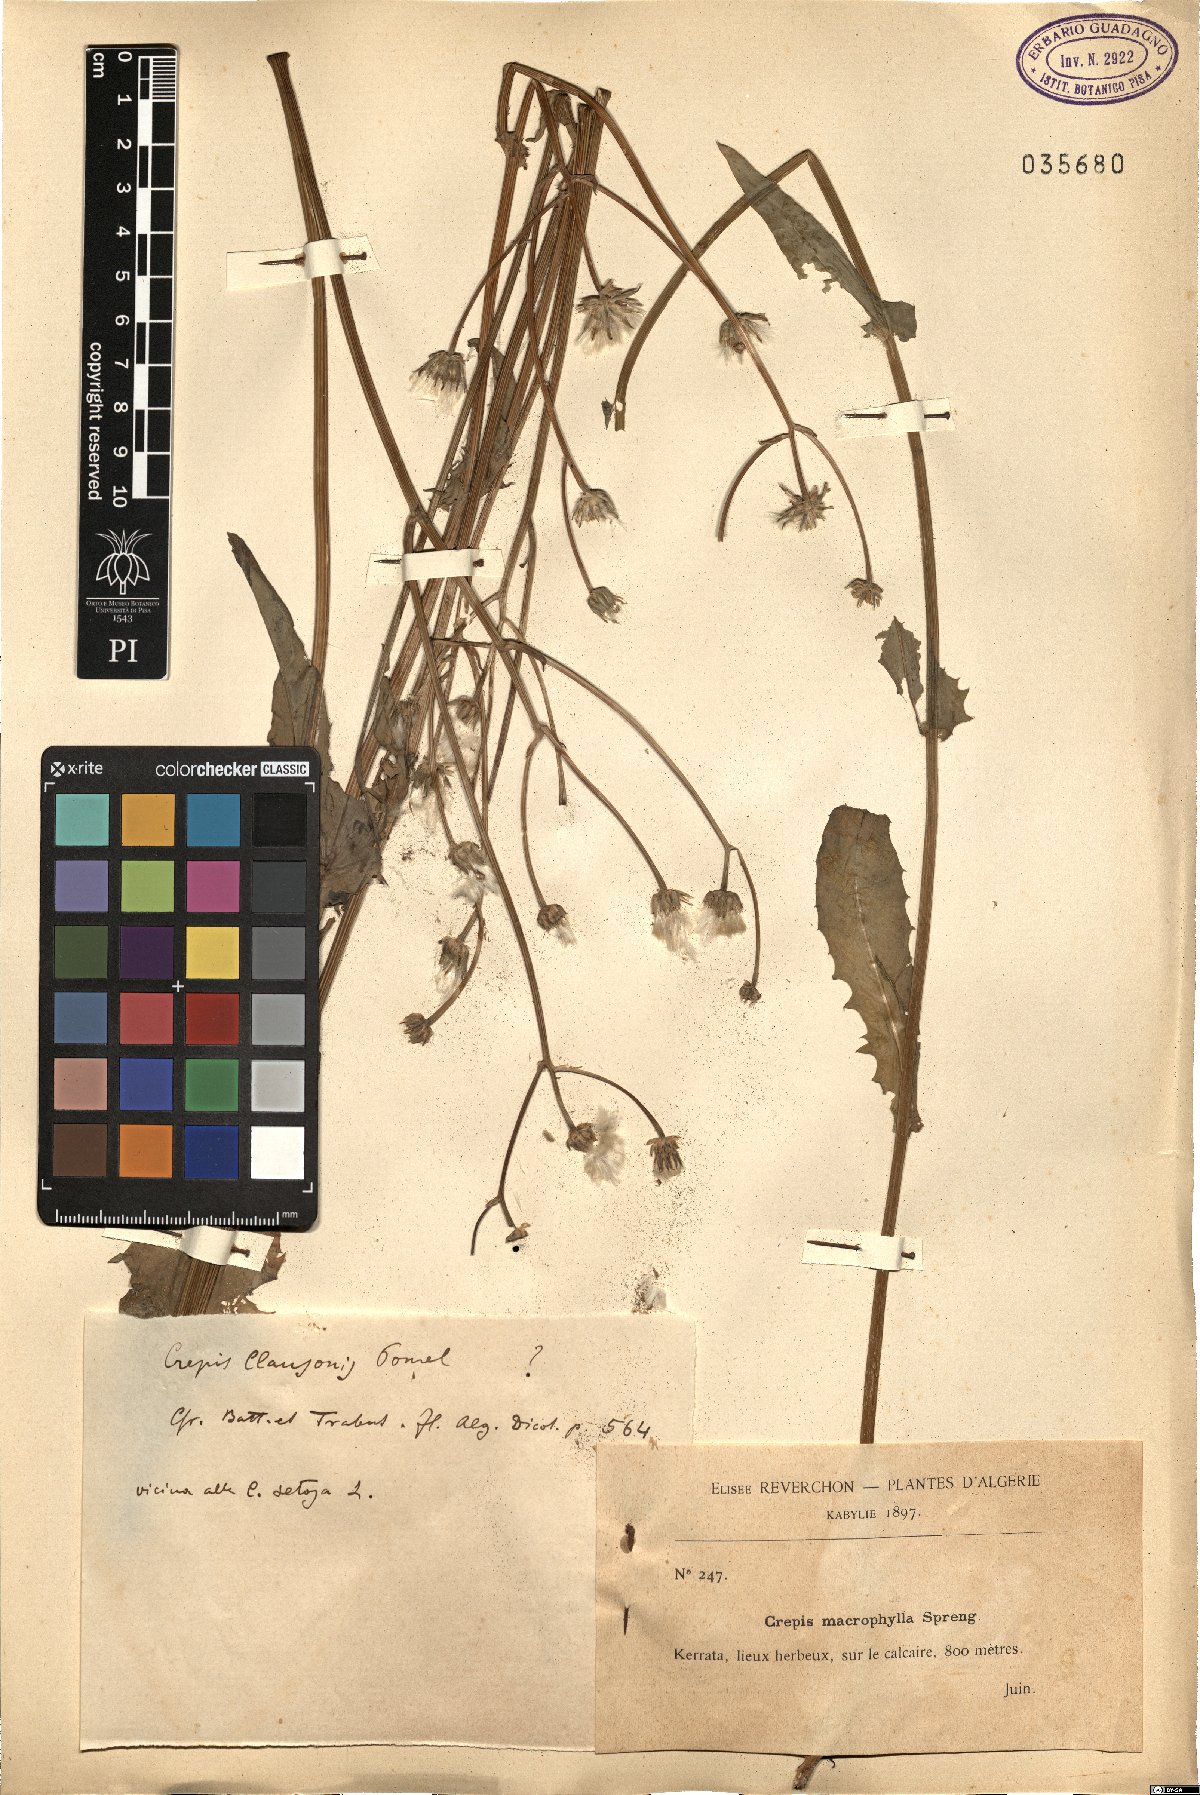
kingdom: Plantae
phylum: Tracheophyta
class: Magnoliopsida
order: Asterales
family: Asteraceae
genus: Crepis
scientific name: Crepis vesicaria
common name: Beaked hawksbeard
